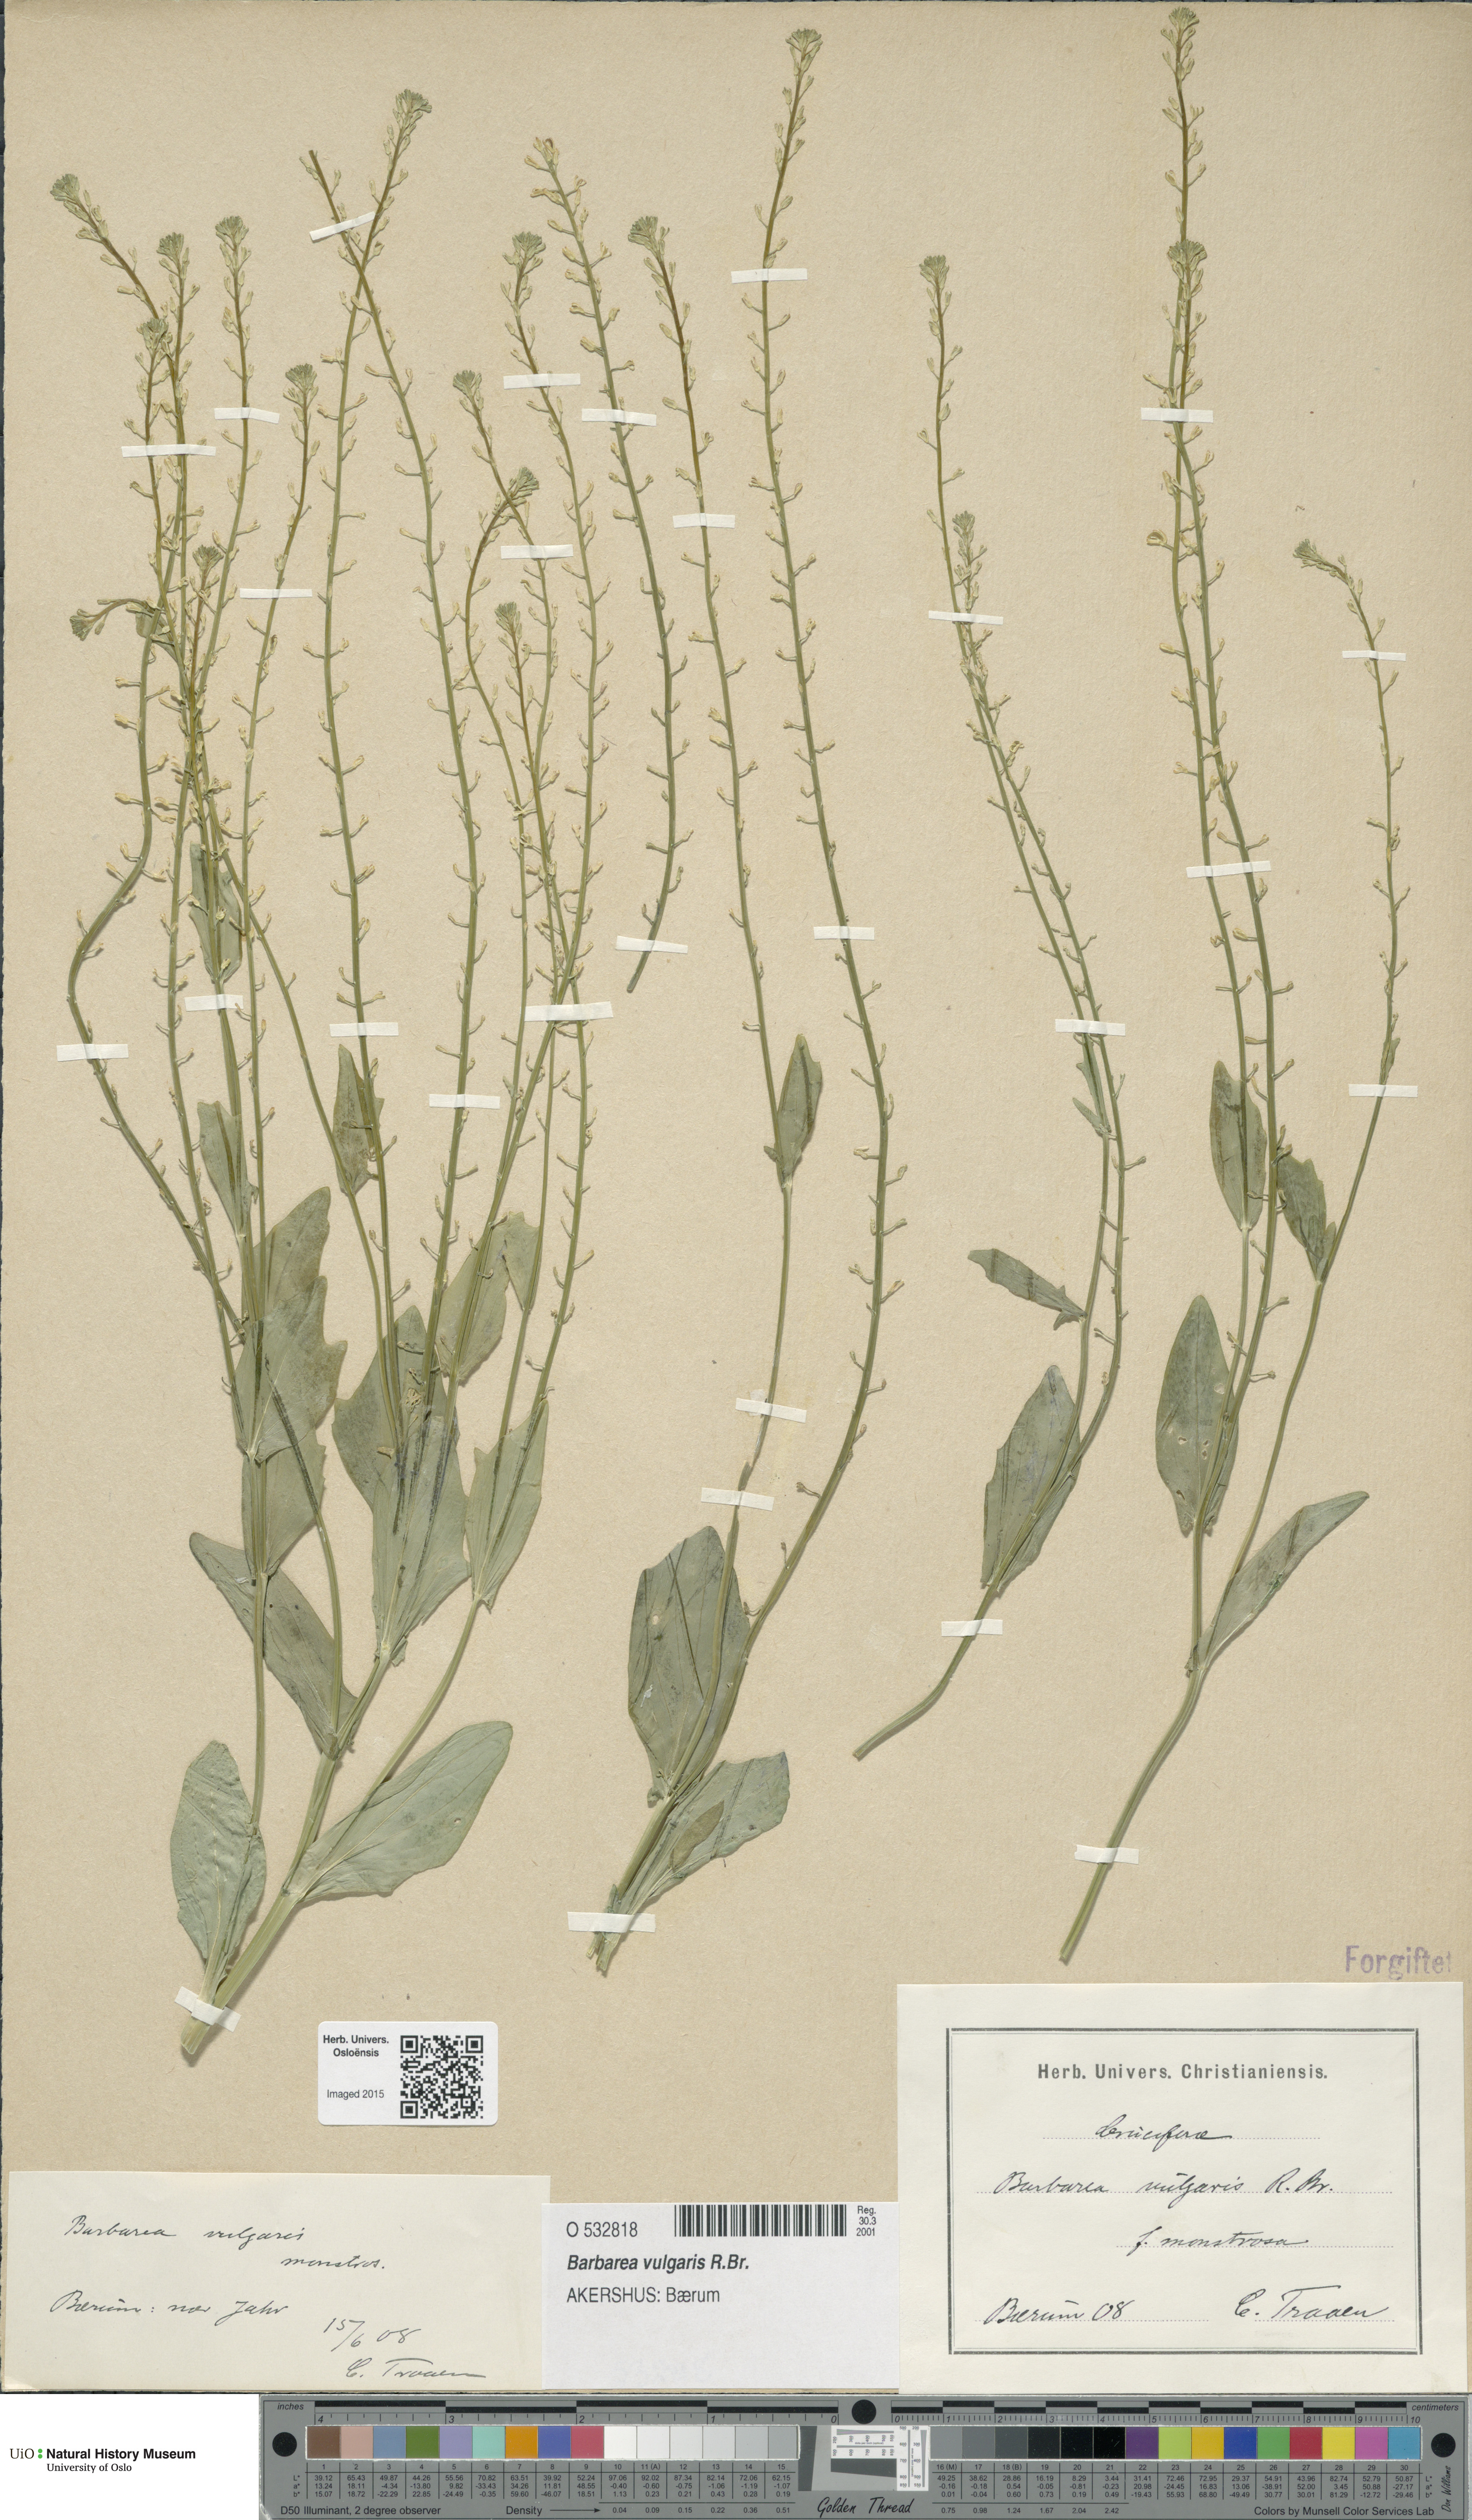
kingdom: Plantae
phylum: Tracheophyta
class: Magnoliopsida
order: Brassicales
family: Brassicaceae
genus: Barbarea
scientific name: Barbarea vulgaris
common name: Cressy-greens
